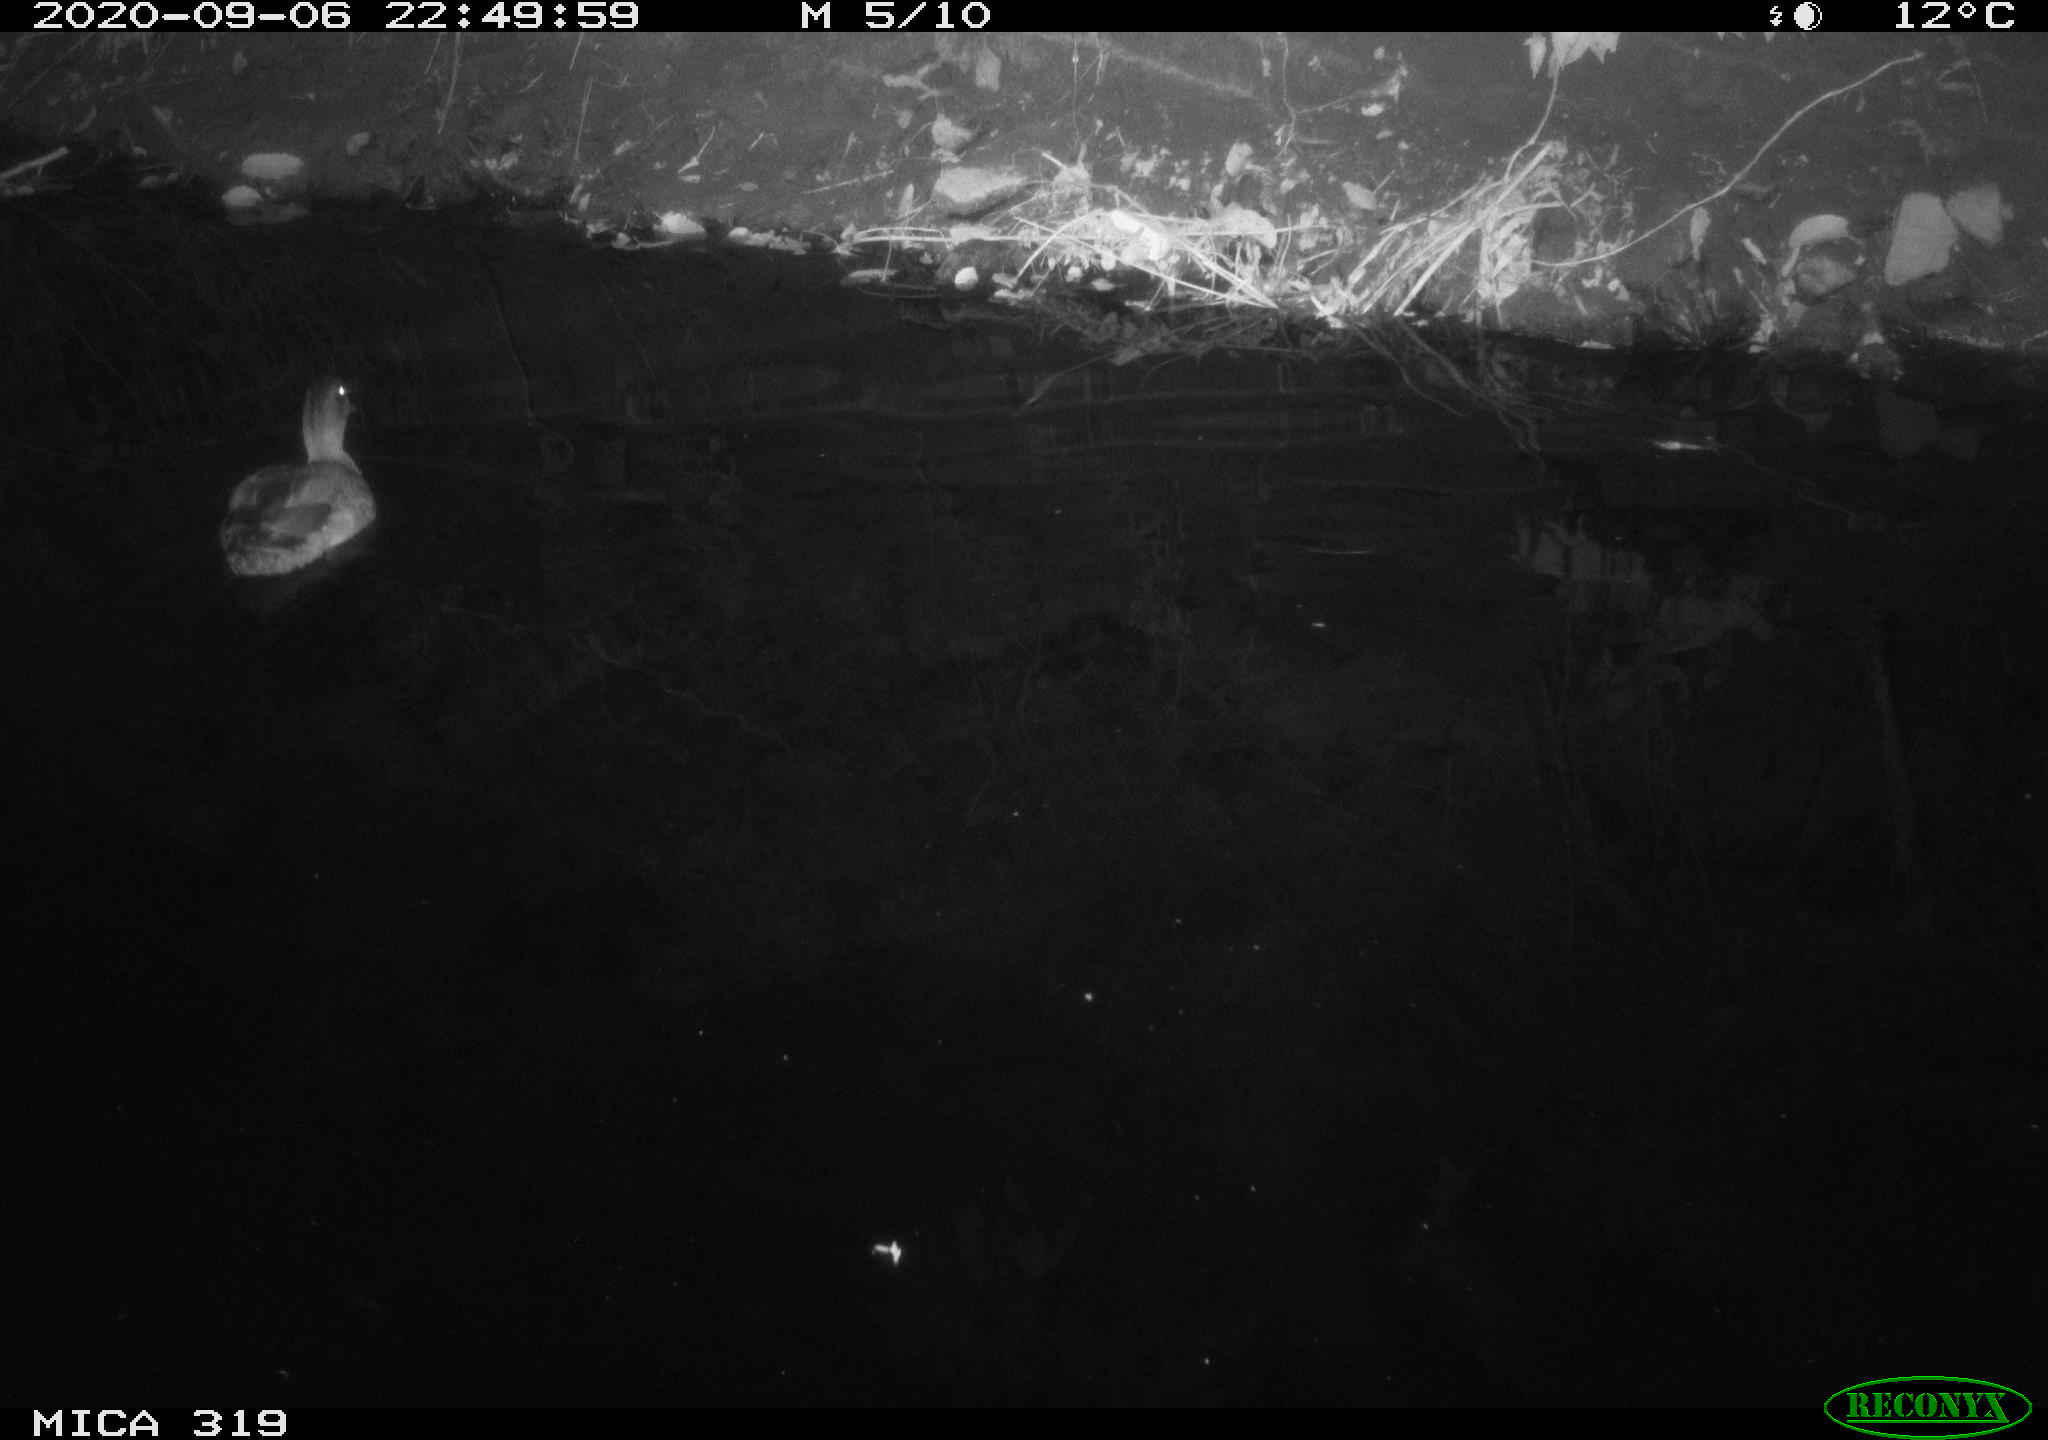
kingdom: Animalia
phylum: Chordata
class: Aves
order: Anseriformes
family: Anatidae
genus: Anas
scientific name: Anas platyrhynchos
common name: Mallard
